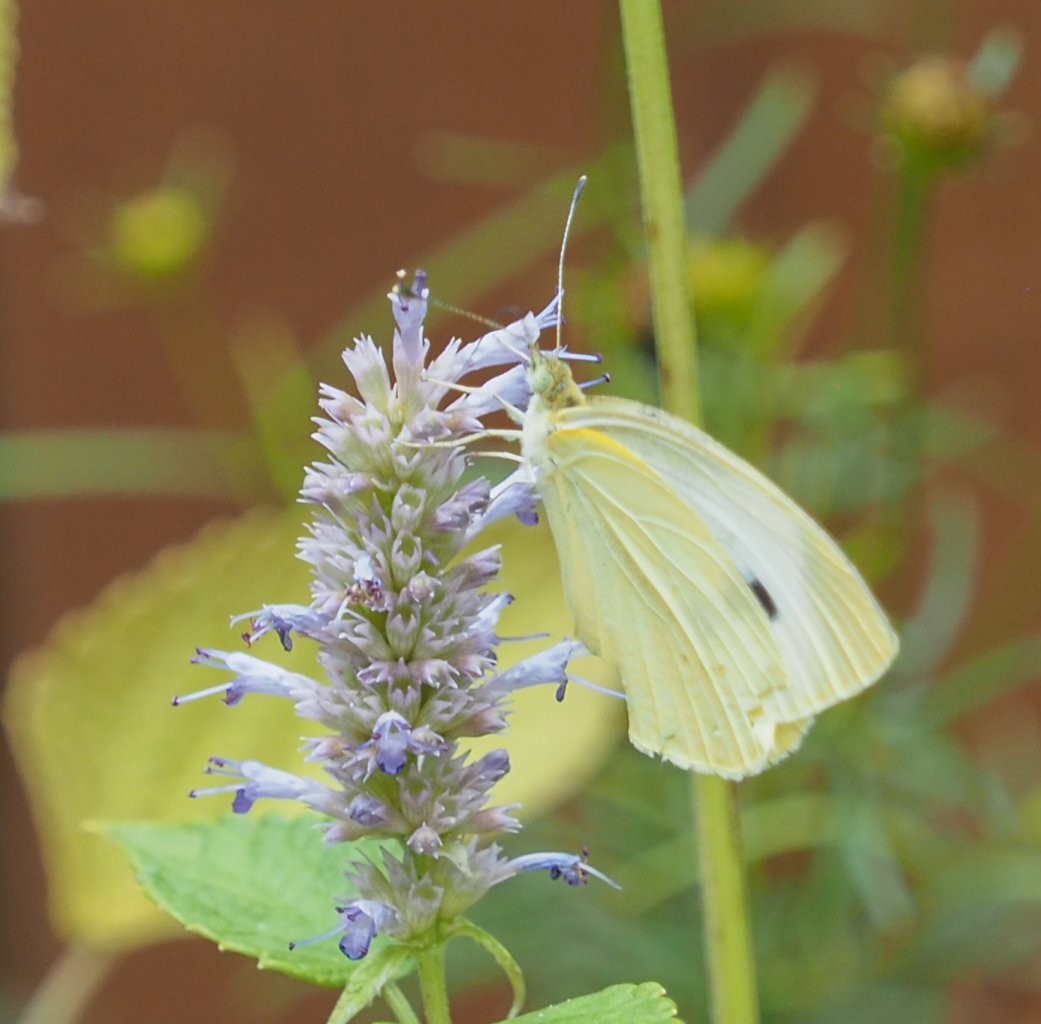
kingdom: Animalia
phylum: Arthropoda
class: Insecta
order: Lepidoptera
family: Pieridae
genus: Pieris
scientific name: Pieris rapae
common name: Cabbage White
